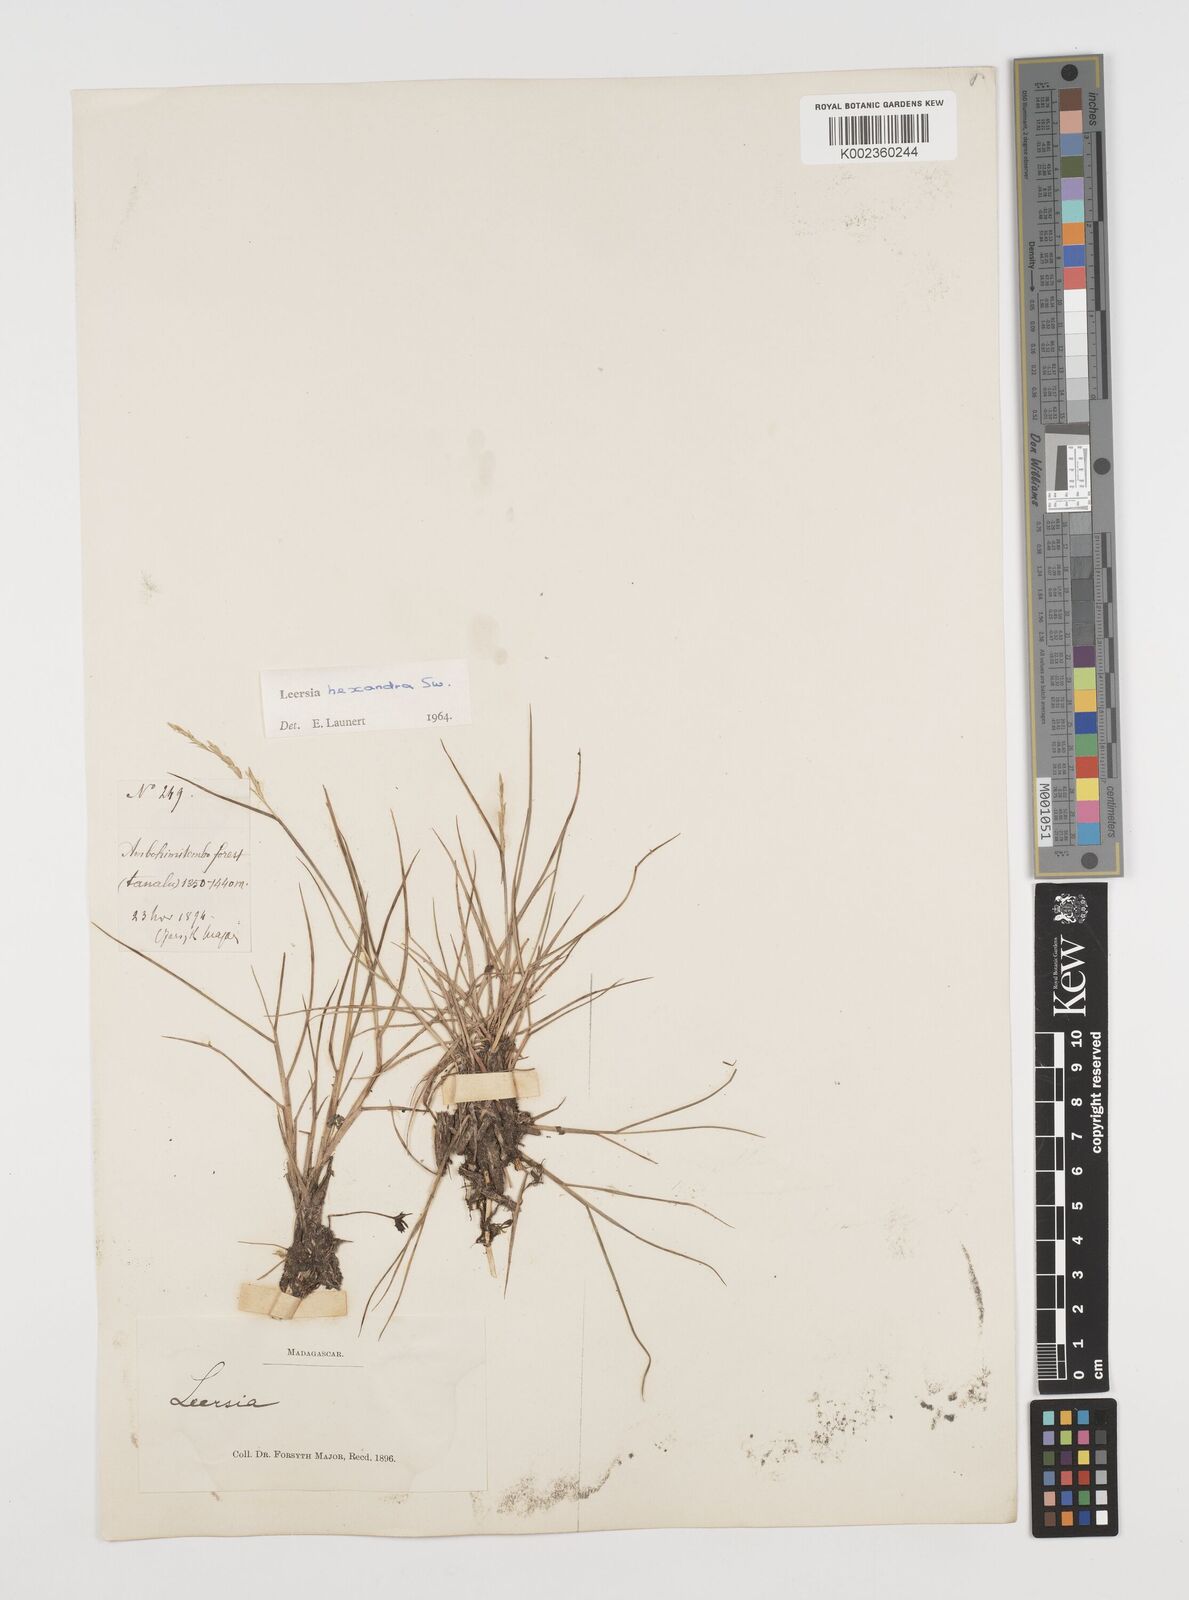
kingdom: Plantae
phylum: Tracheophyta
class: Liliopsida
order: Poales
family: Poaceae
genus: Leersia
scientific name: Leersia hexandra
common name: Southern cut grass
